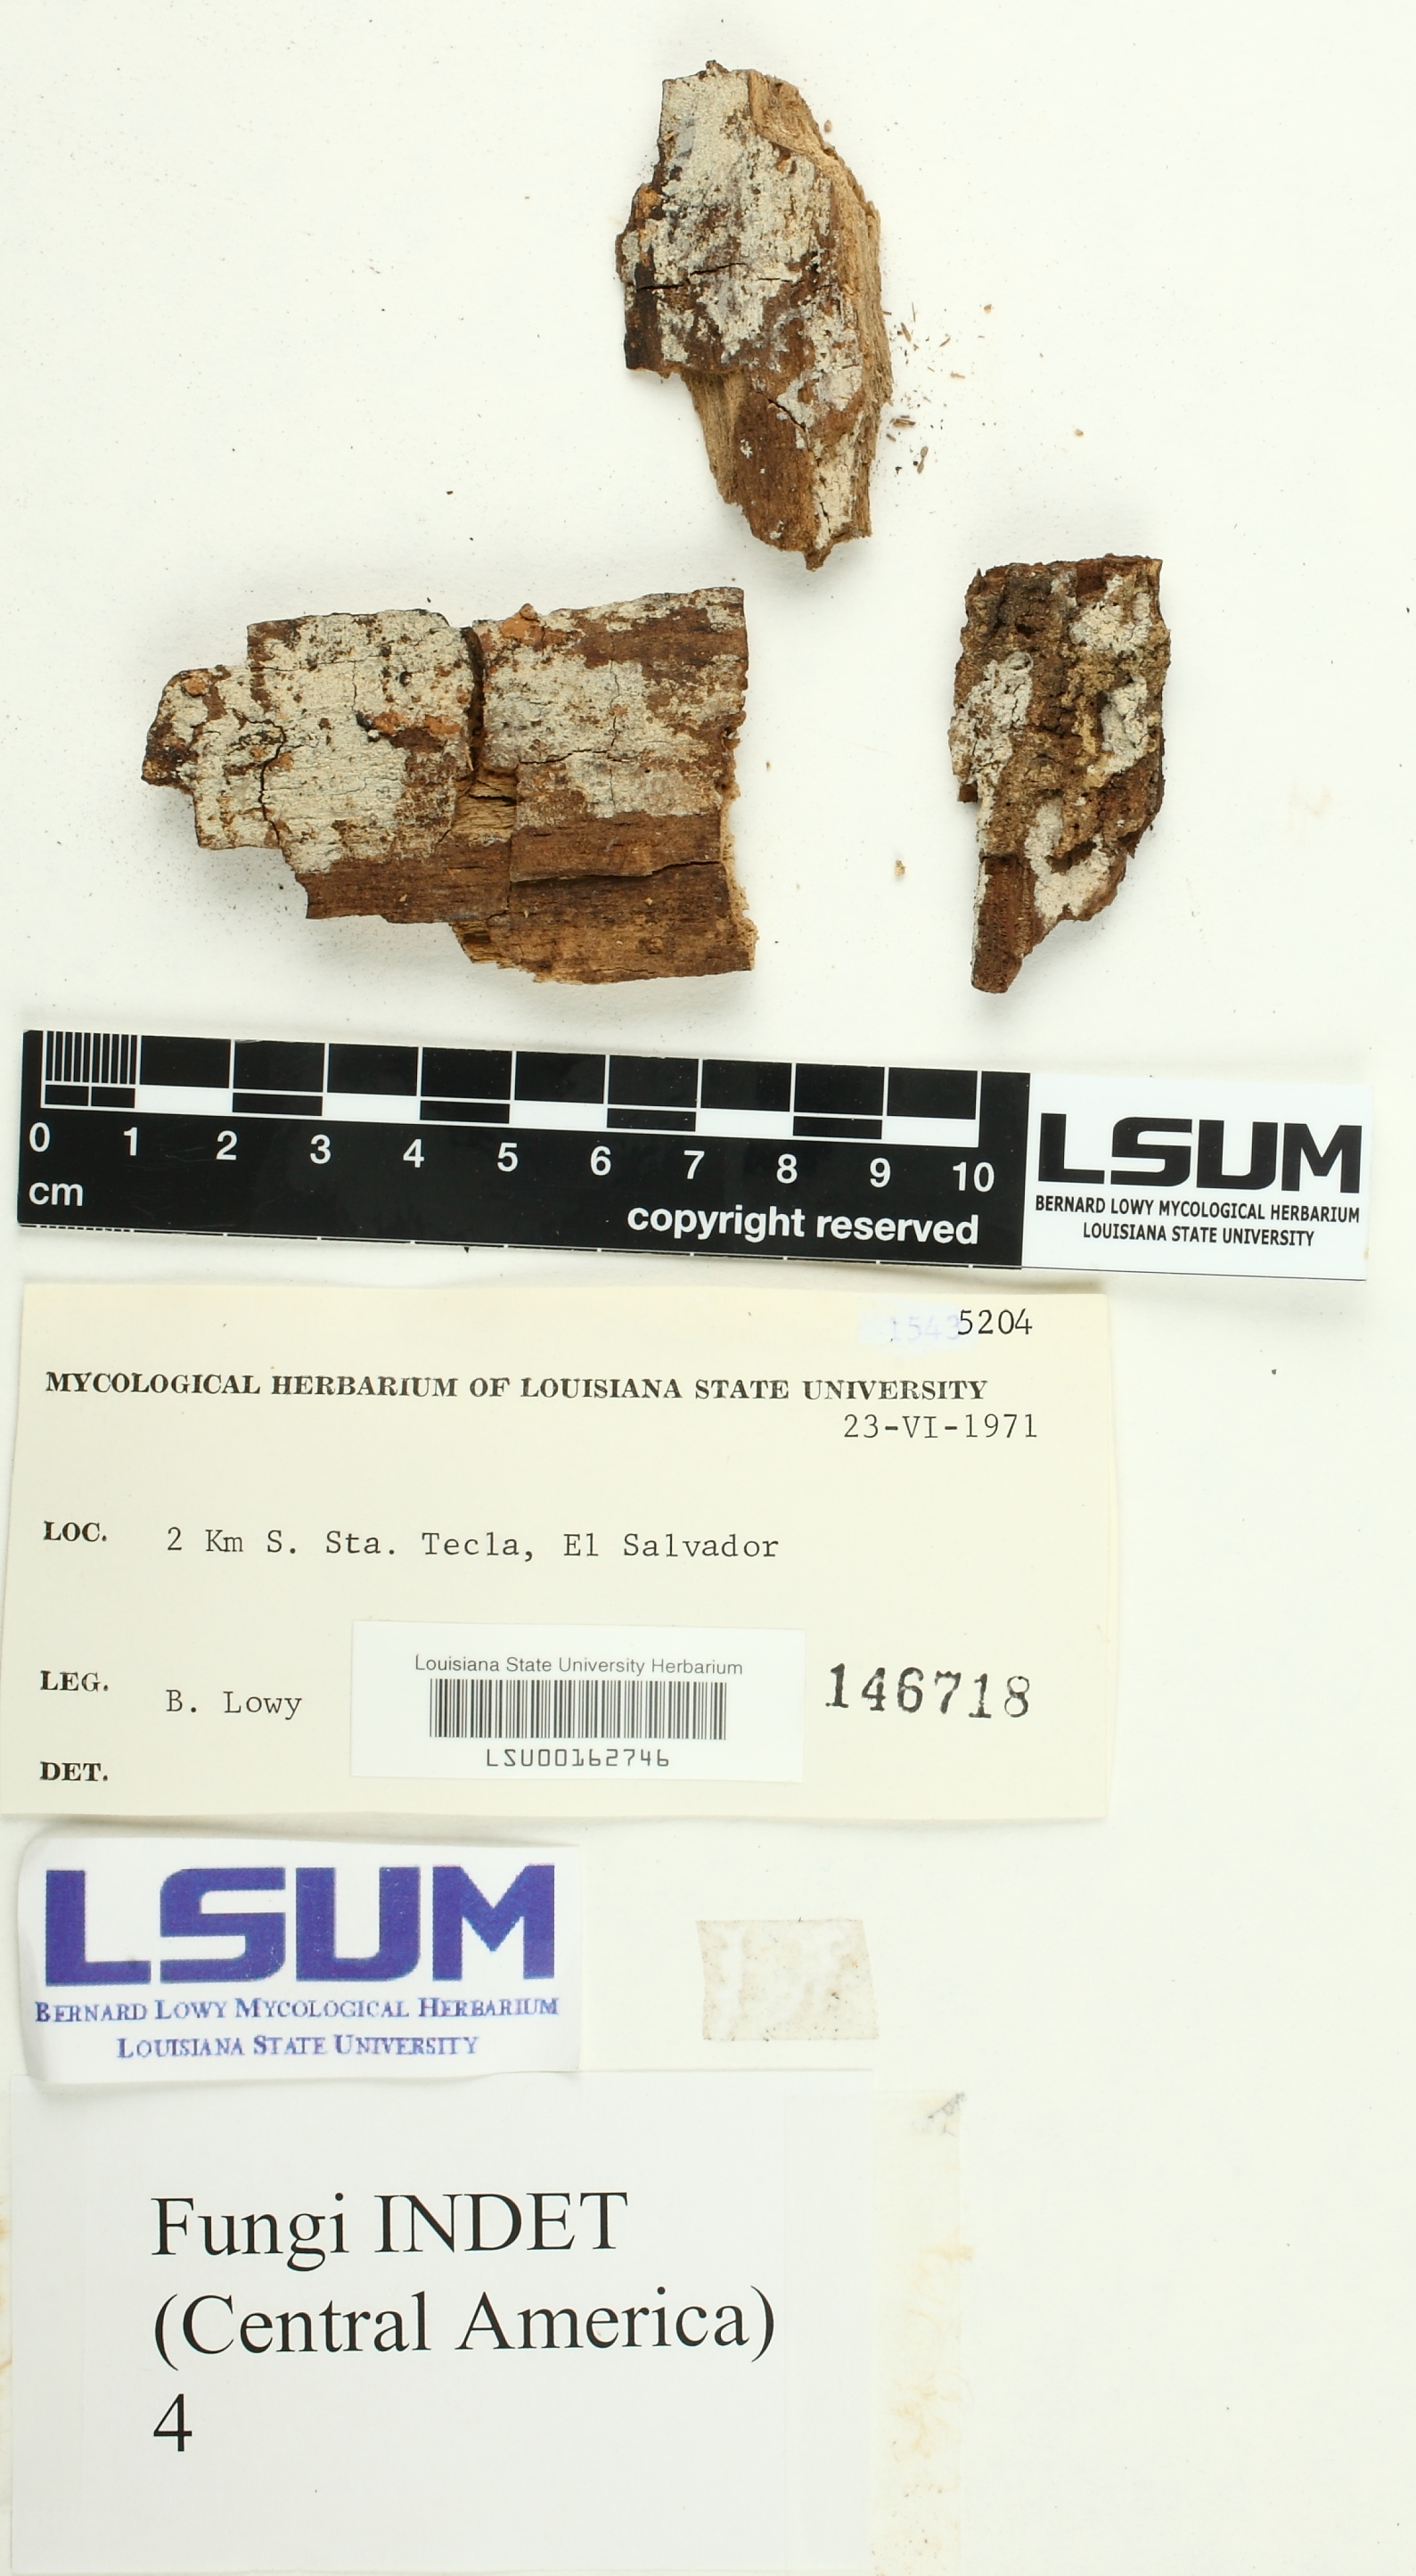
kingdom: Fungi
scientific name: Fungi
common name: Fungi
